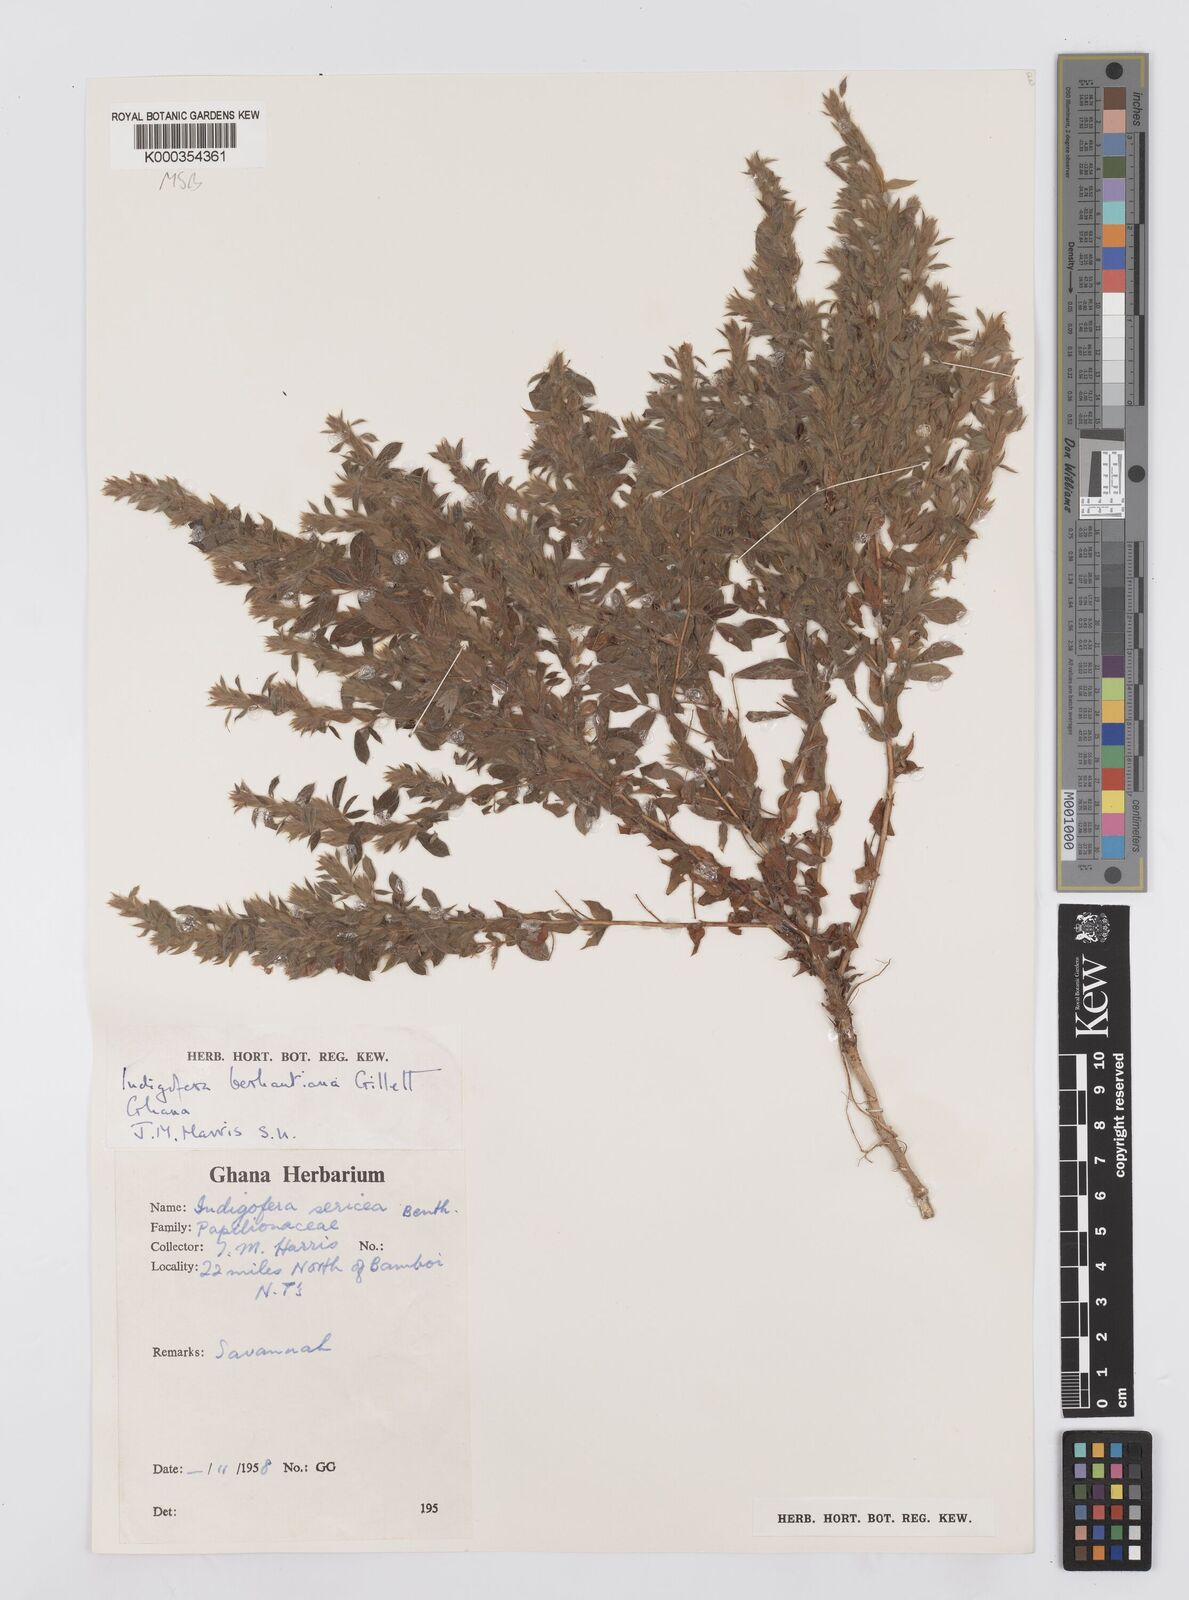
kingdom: Plantae
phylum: Tracheophyta
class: Magnoliopsida
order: Fabales
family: Fabaceae
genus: Indigofera
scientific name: Indigofera berhautiana
